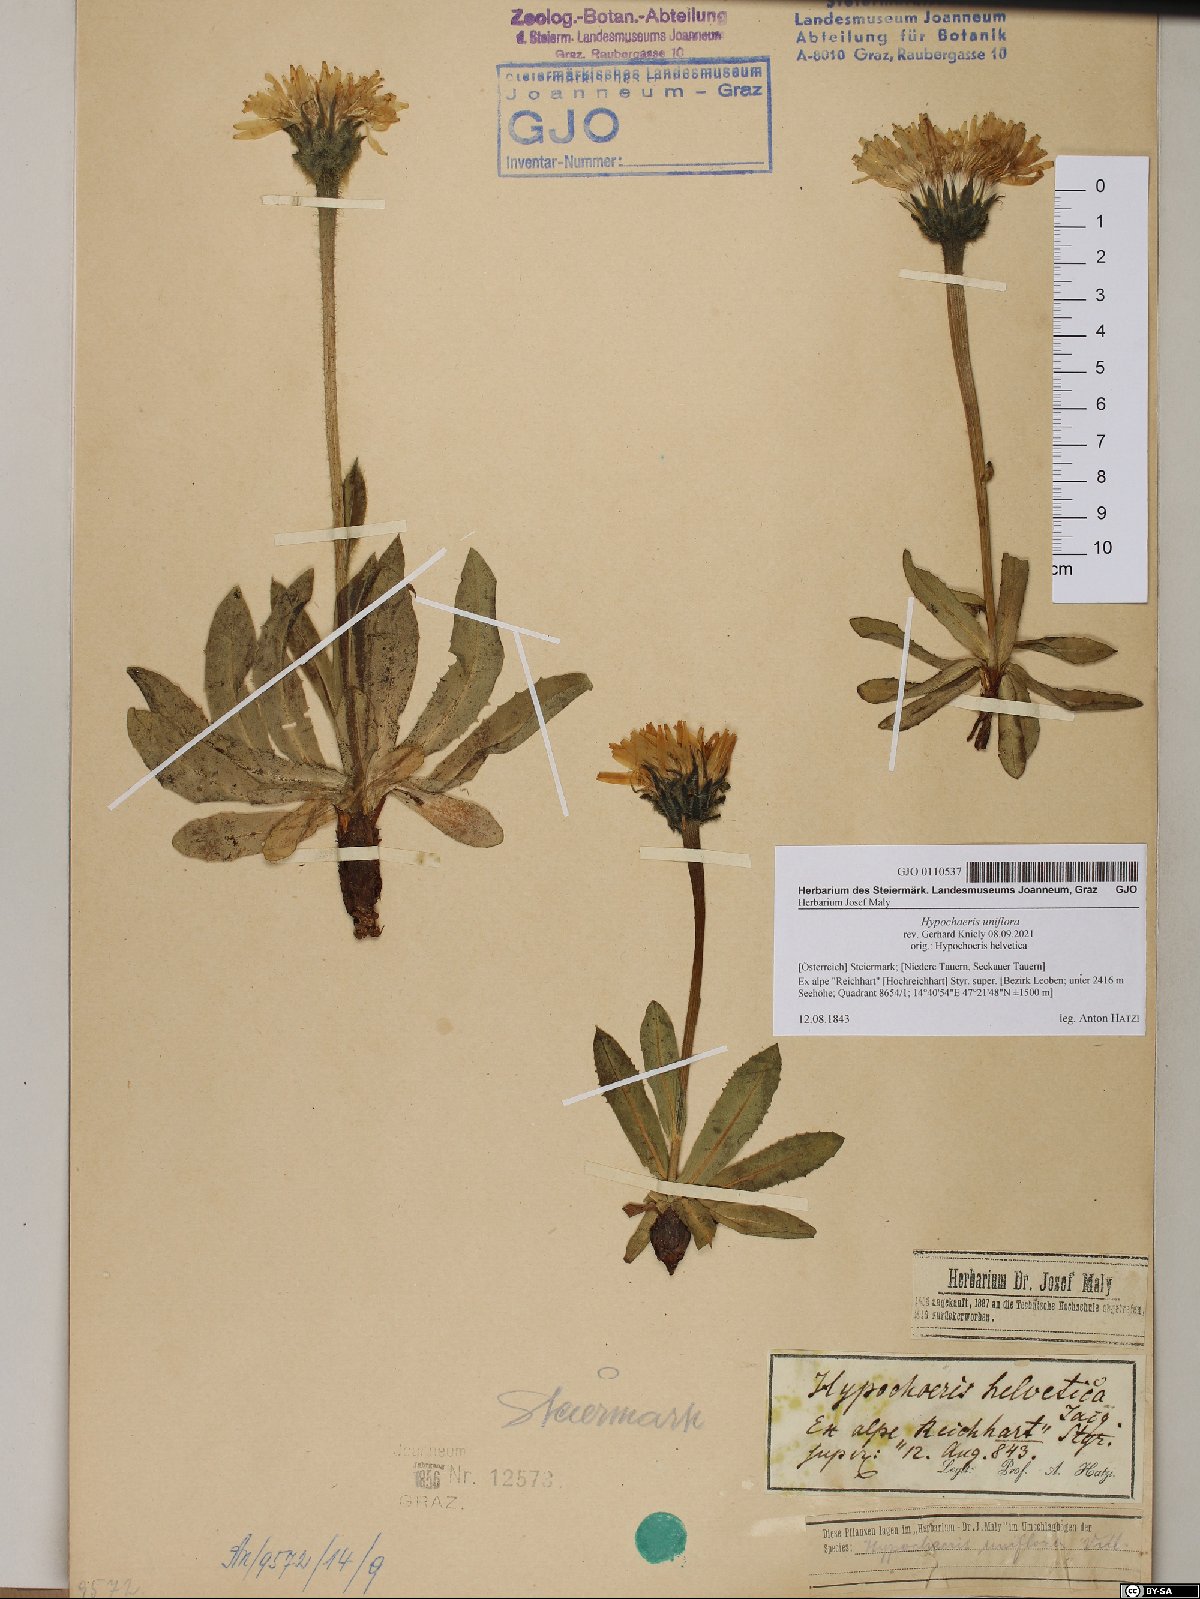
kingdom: Plantae
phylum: Tracheophyta
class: Magnoliopsida
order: Asterales
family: Asteraceae
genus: Trommsdorffia
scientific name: Trommsdorffia uniflora
